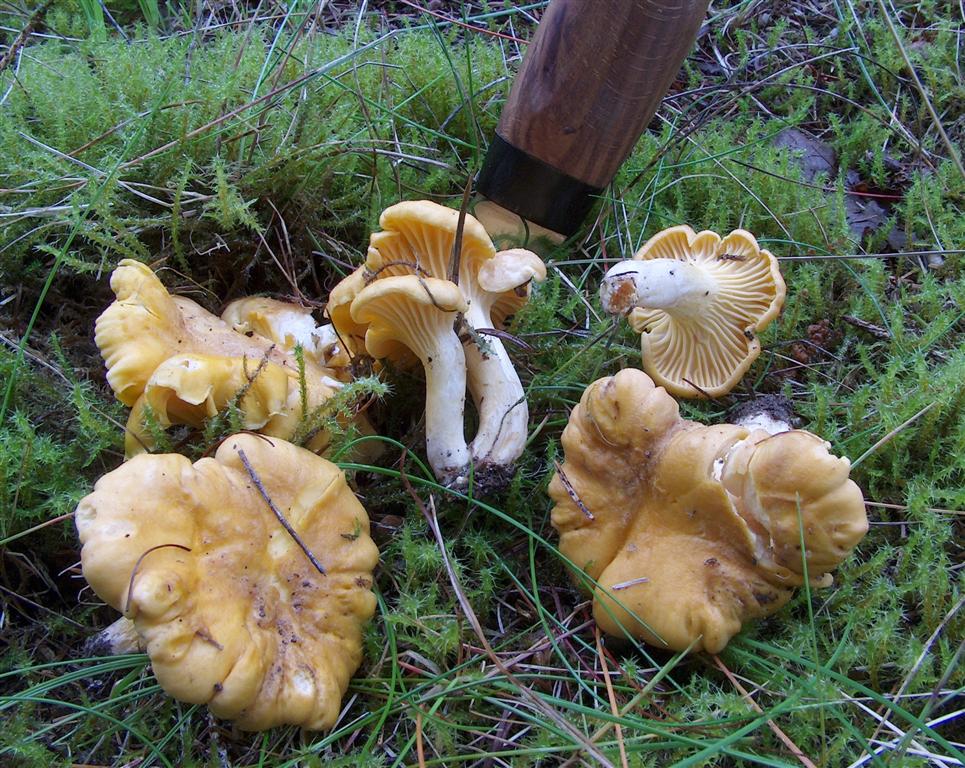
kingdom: Fungi
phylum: Basidiomycota
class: Agaricomycetes
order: Cantharellales
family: Hydnaceae
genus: Cantharellus
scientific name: Cantharellus amethysteus
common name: ametyst-kantarel
